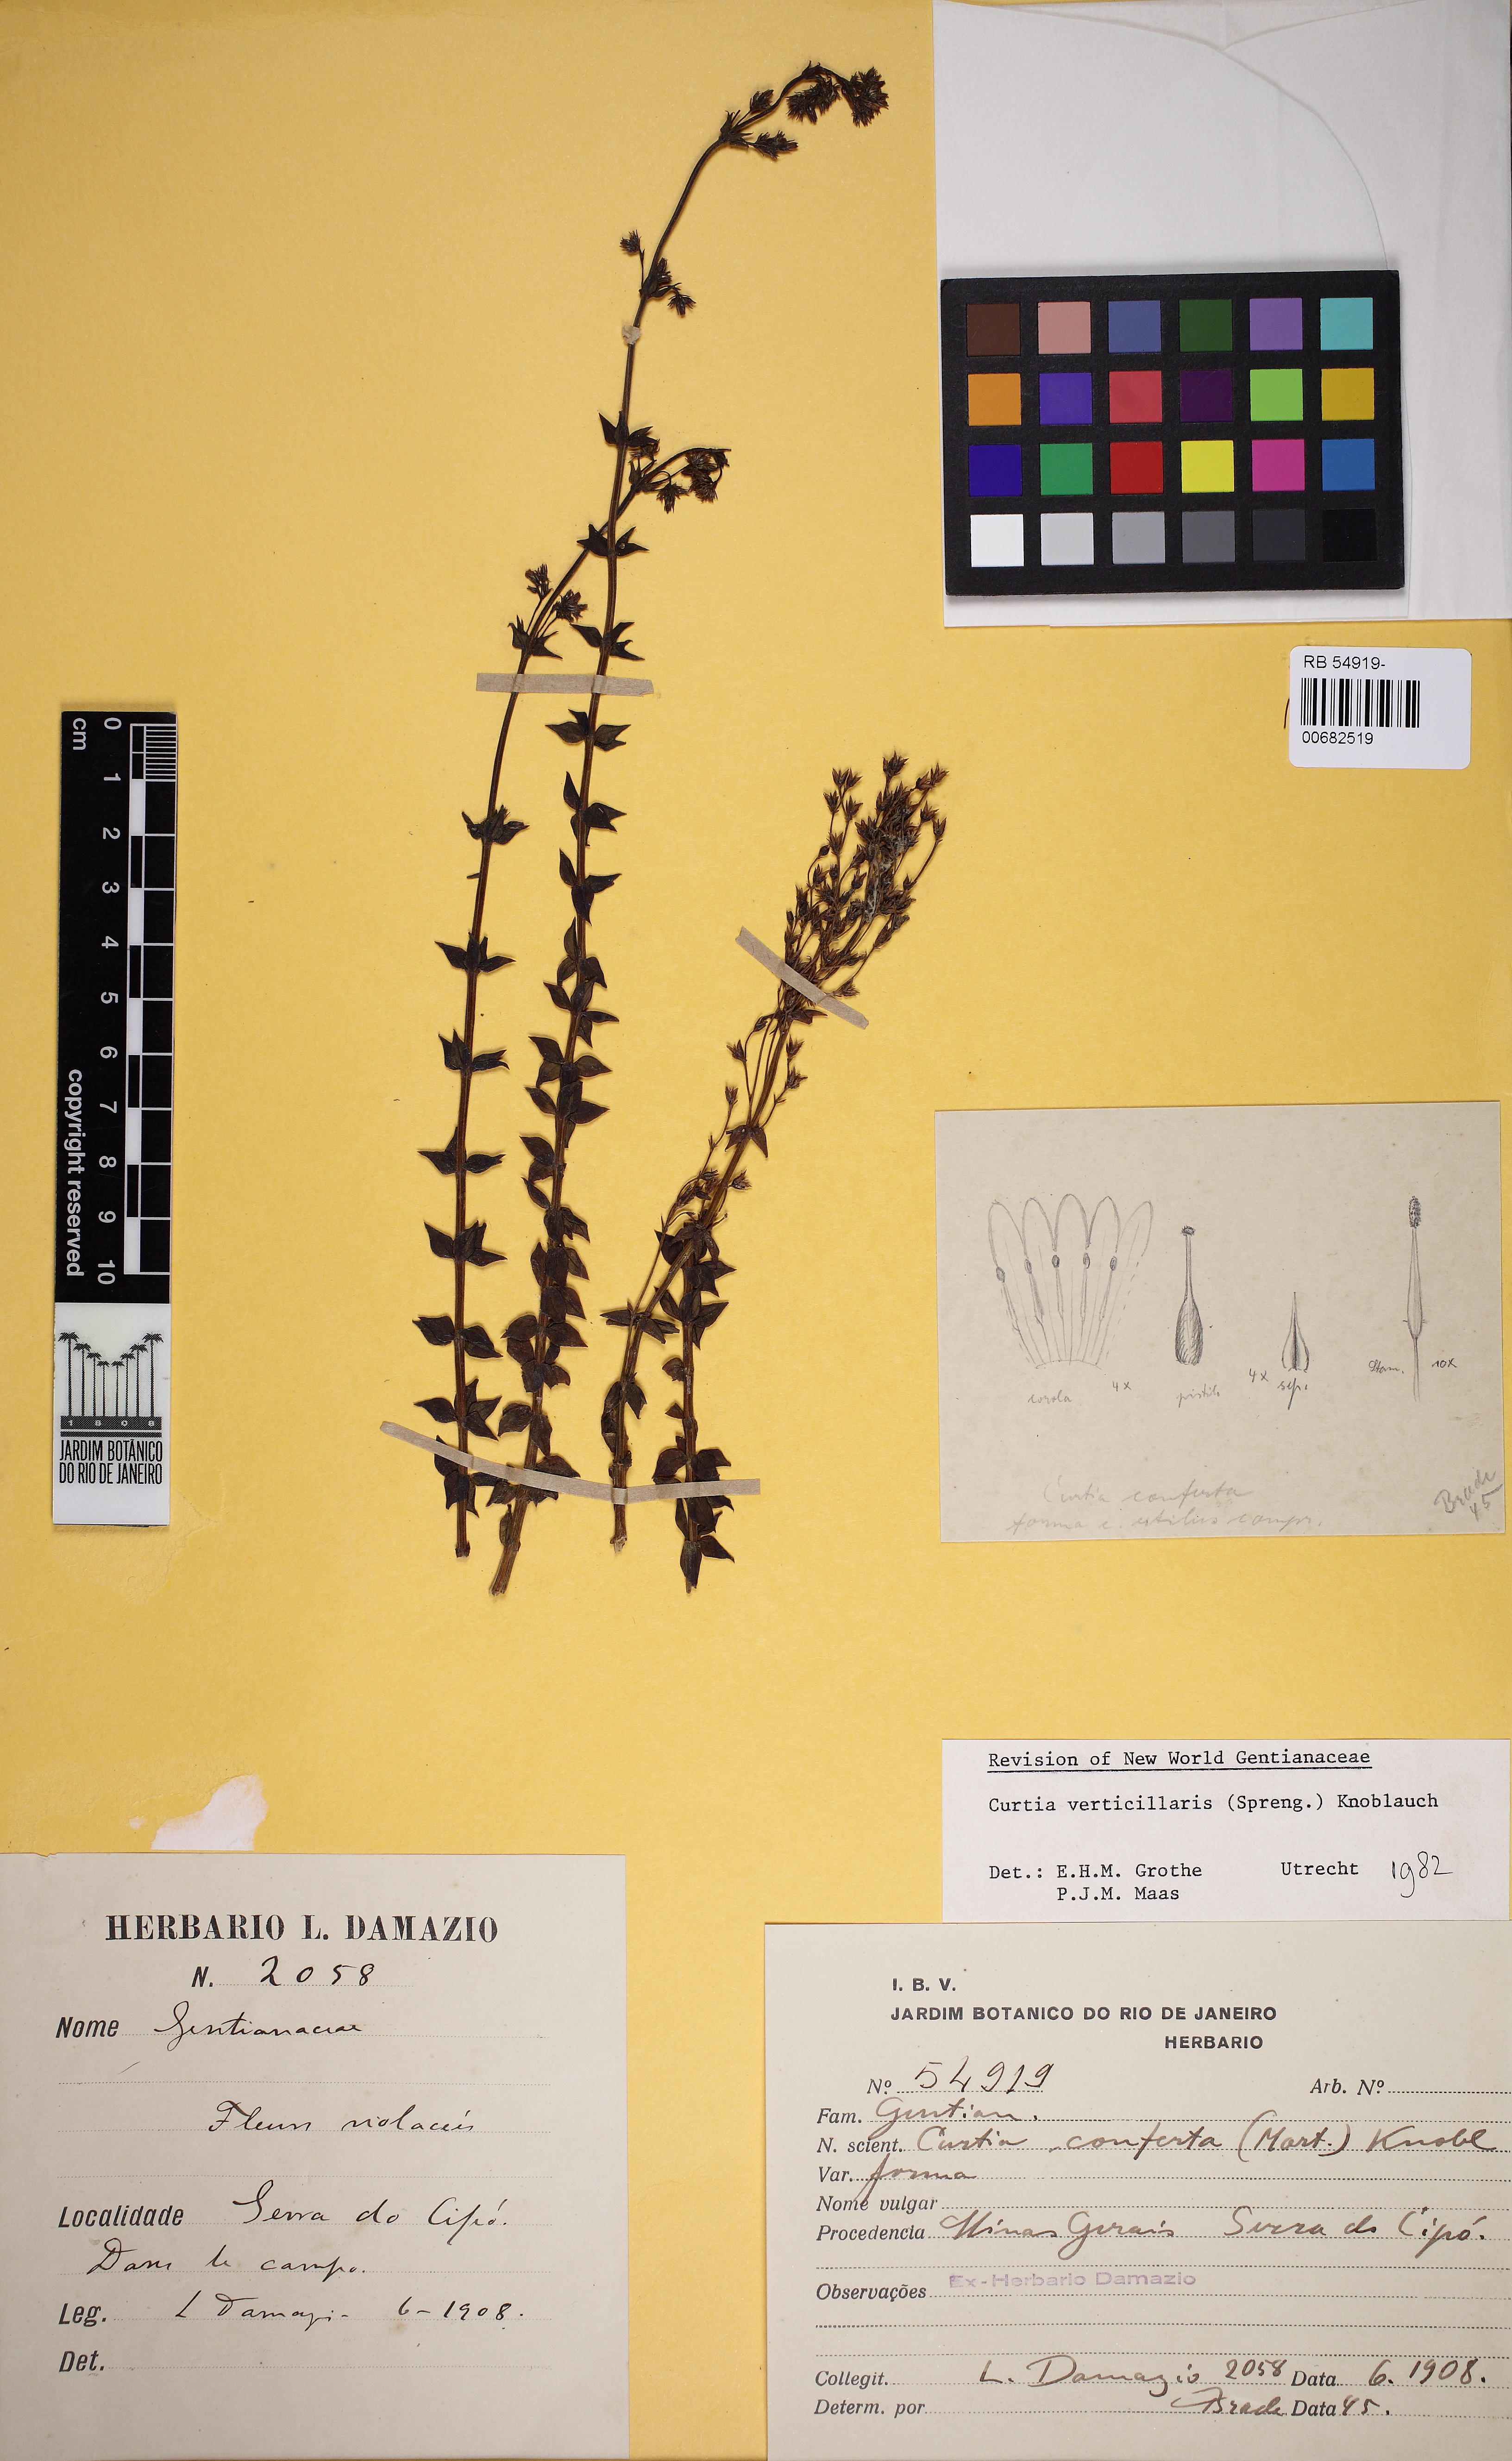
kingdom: Plantae
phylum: Tracheophyta
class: Magnoliopsida
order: Gentianales
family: Gentianaceae
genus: Curtia
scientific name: Curtia verticillaris
